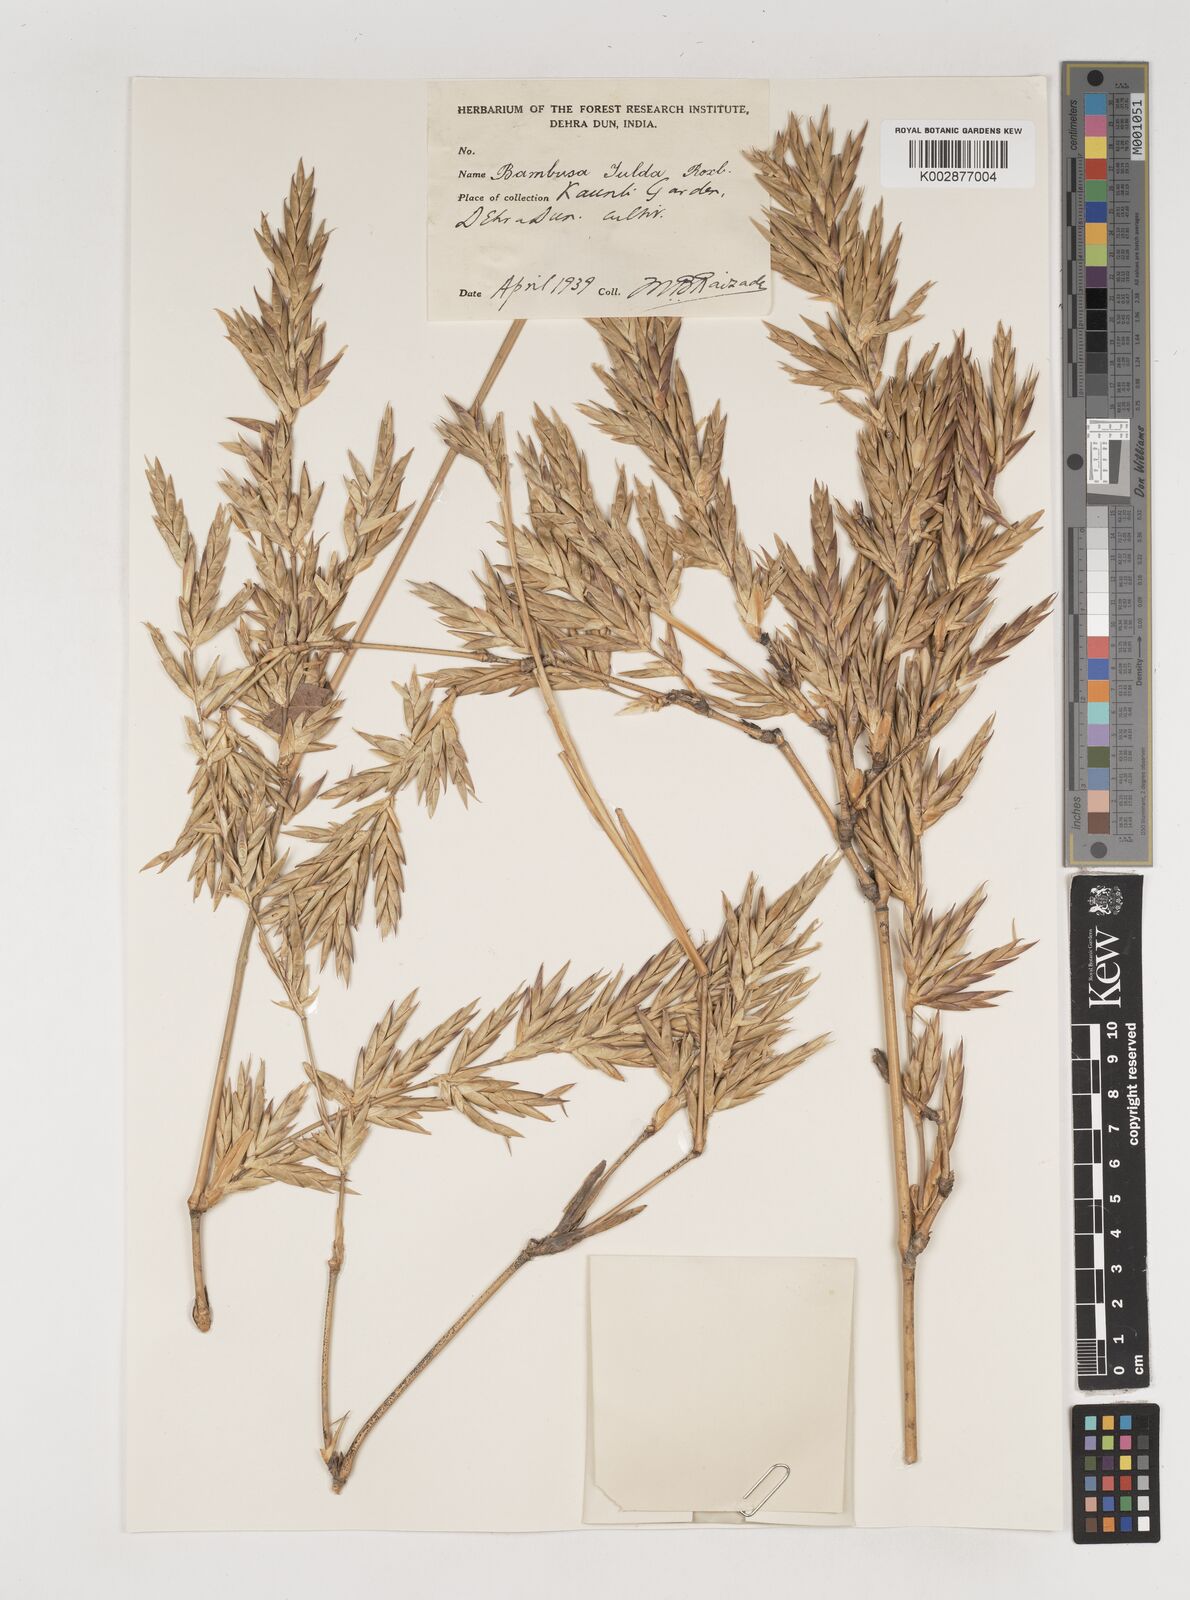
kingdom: Plantae
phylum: Tracheophyta
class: Liliopsida
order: Poales
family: Poaceae
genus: Bambusa
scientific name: Bambusa tulda
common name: Bengal bamboo
